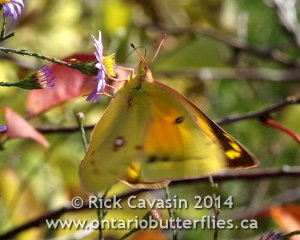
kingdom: Animalia
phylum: Arthropoda
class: Insecta
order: Lepidoptera
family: Pieridae
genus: Colias
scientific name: Colias eurytheme
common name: Orange Sulphur
